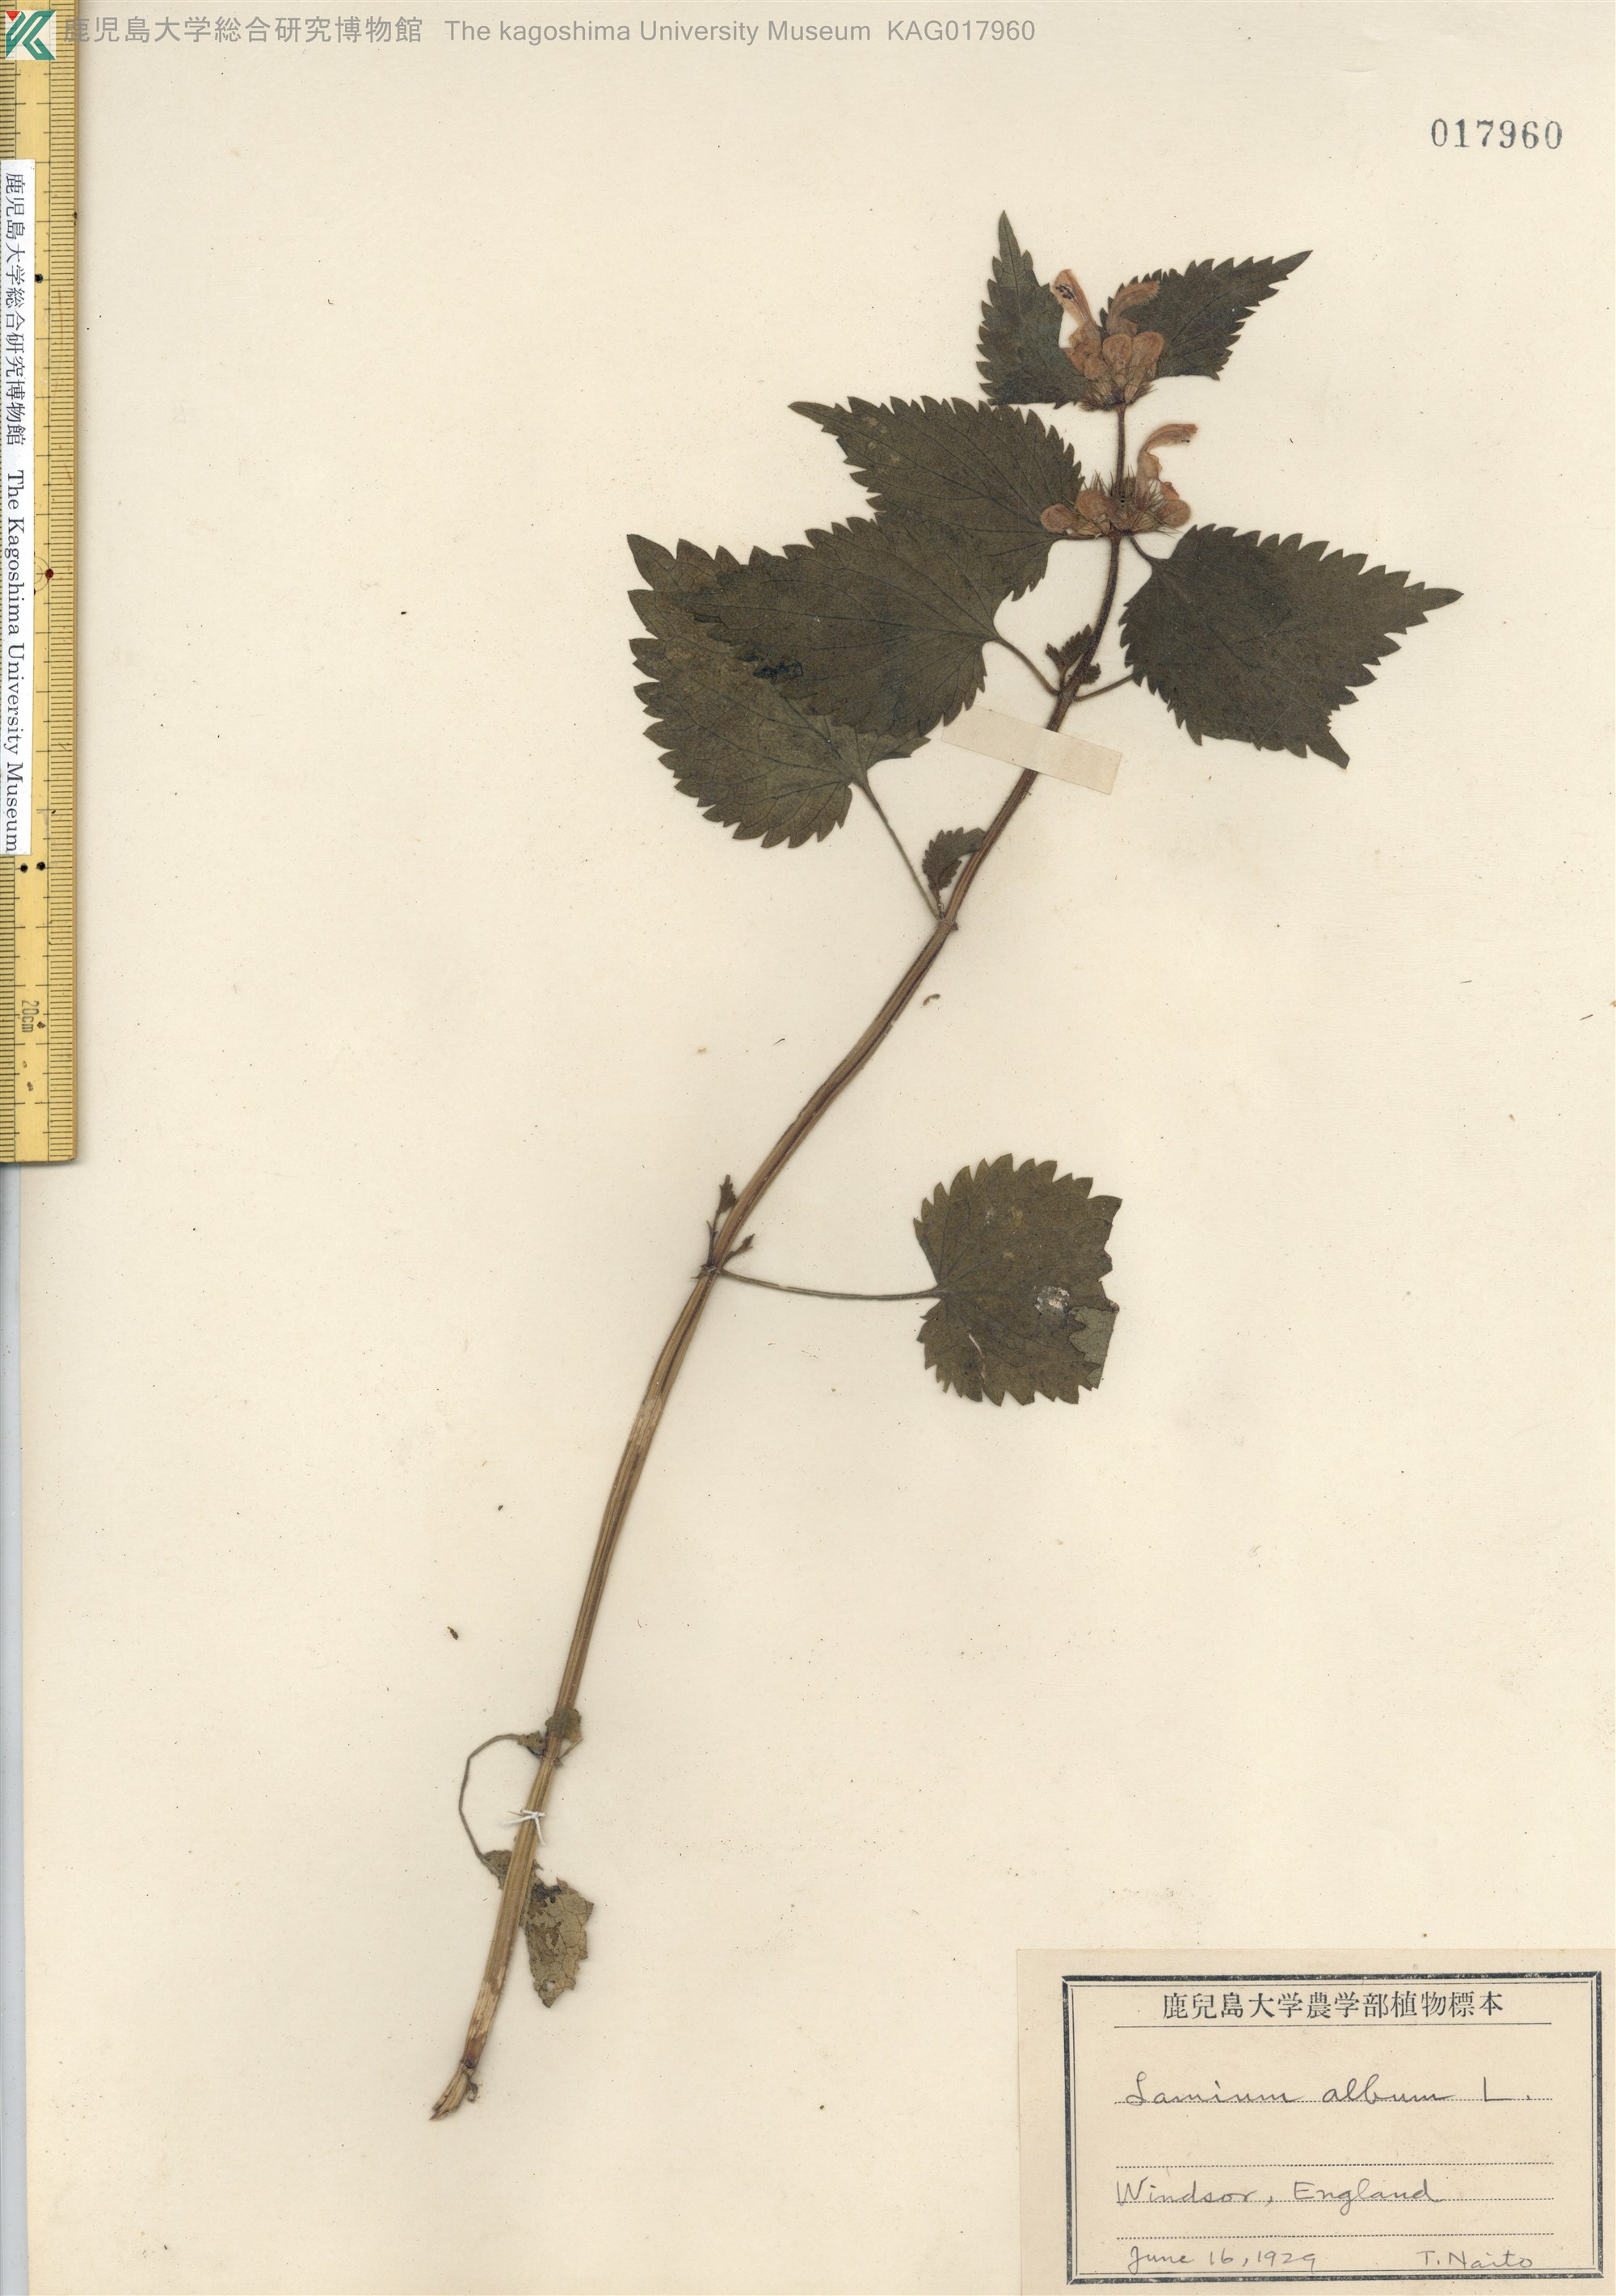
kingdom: Plantae
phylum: Tracheophyta
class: Magnoliopsida
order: Lamiales
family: Lamiaceae
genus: Lamium
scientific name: Lamium album
